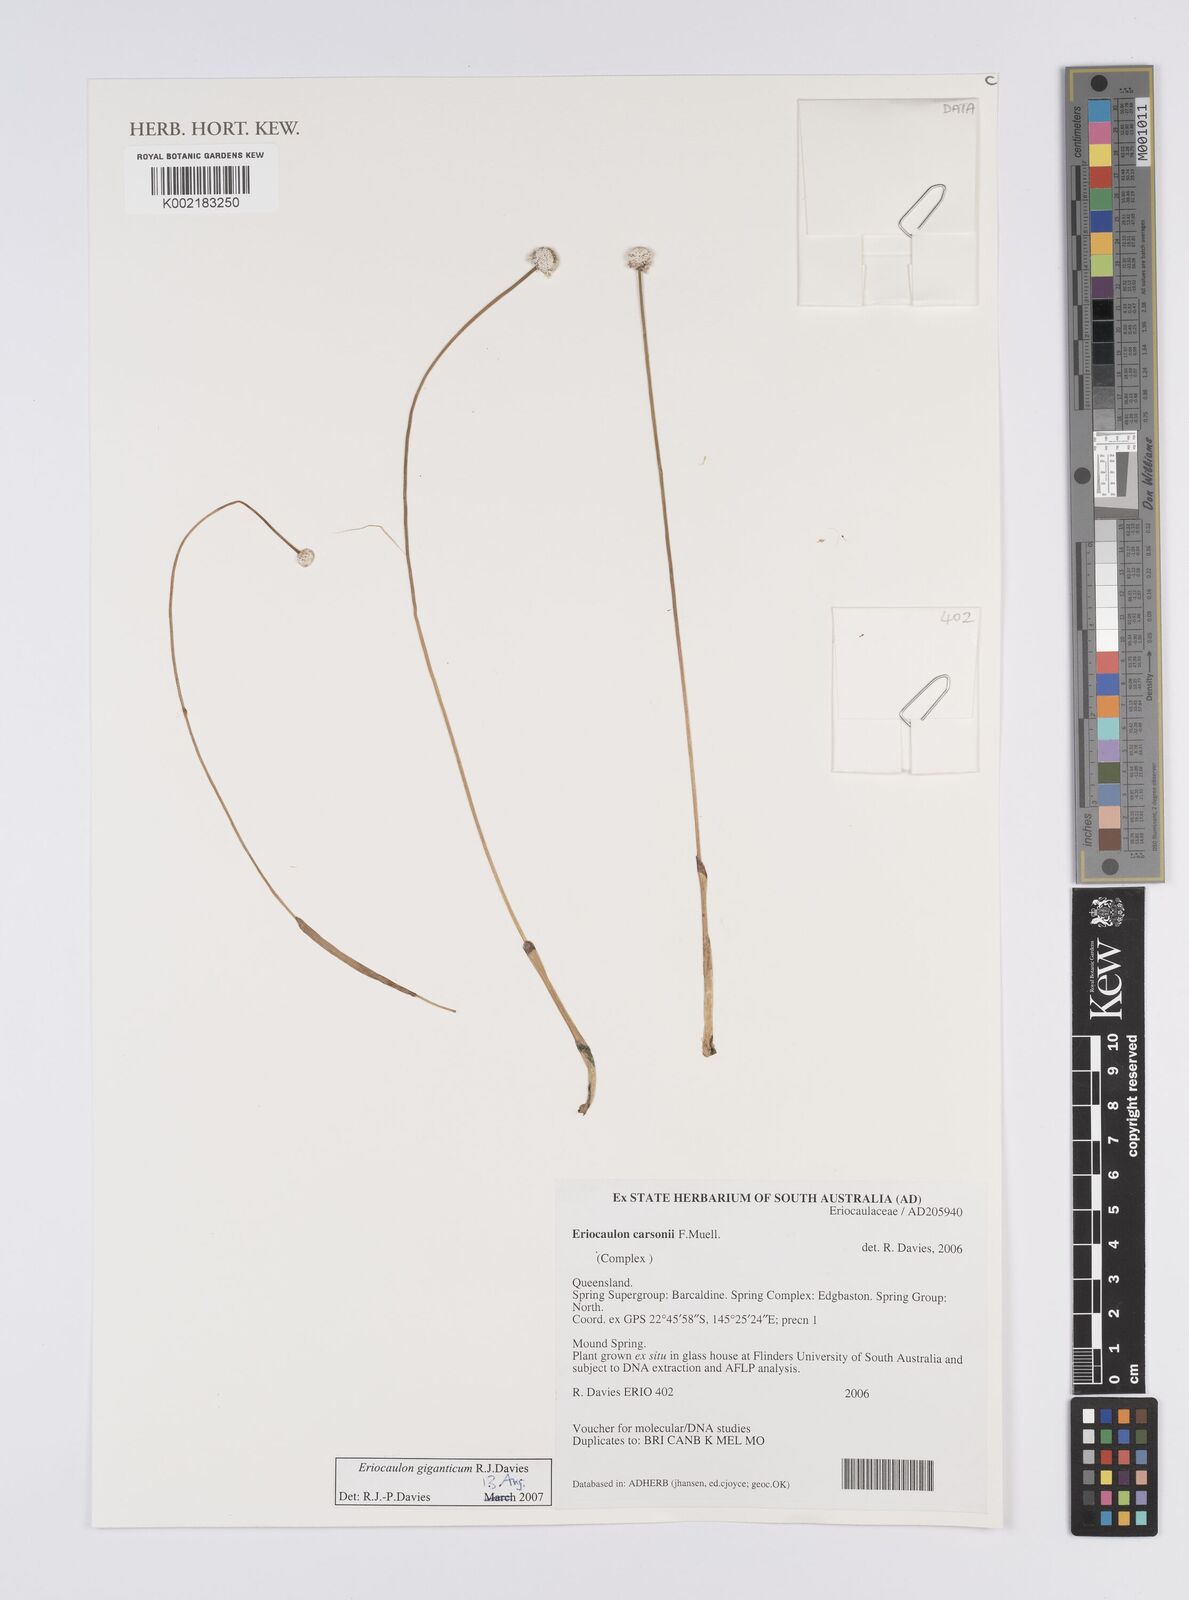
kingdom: Plantae
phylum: Tracheophyta
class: Liliopsida
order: Poales
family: Eriocaulaceae
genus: Eriocaulon
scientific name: Eriocaulon giganticum
